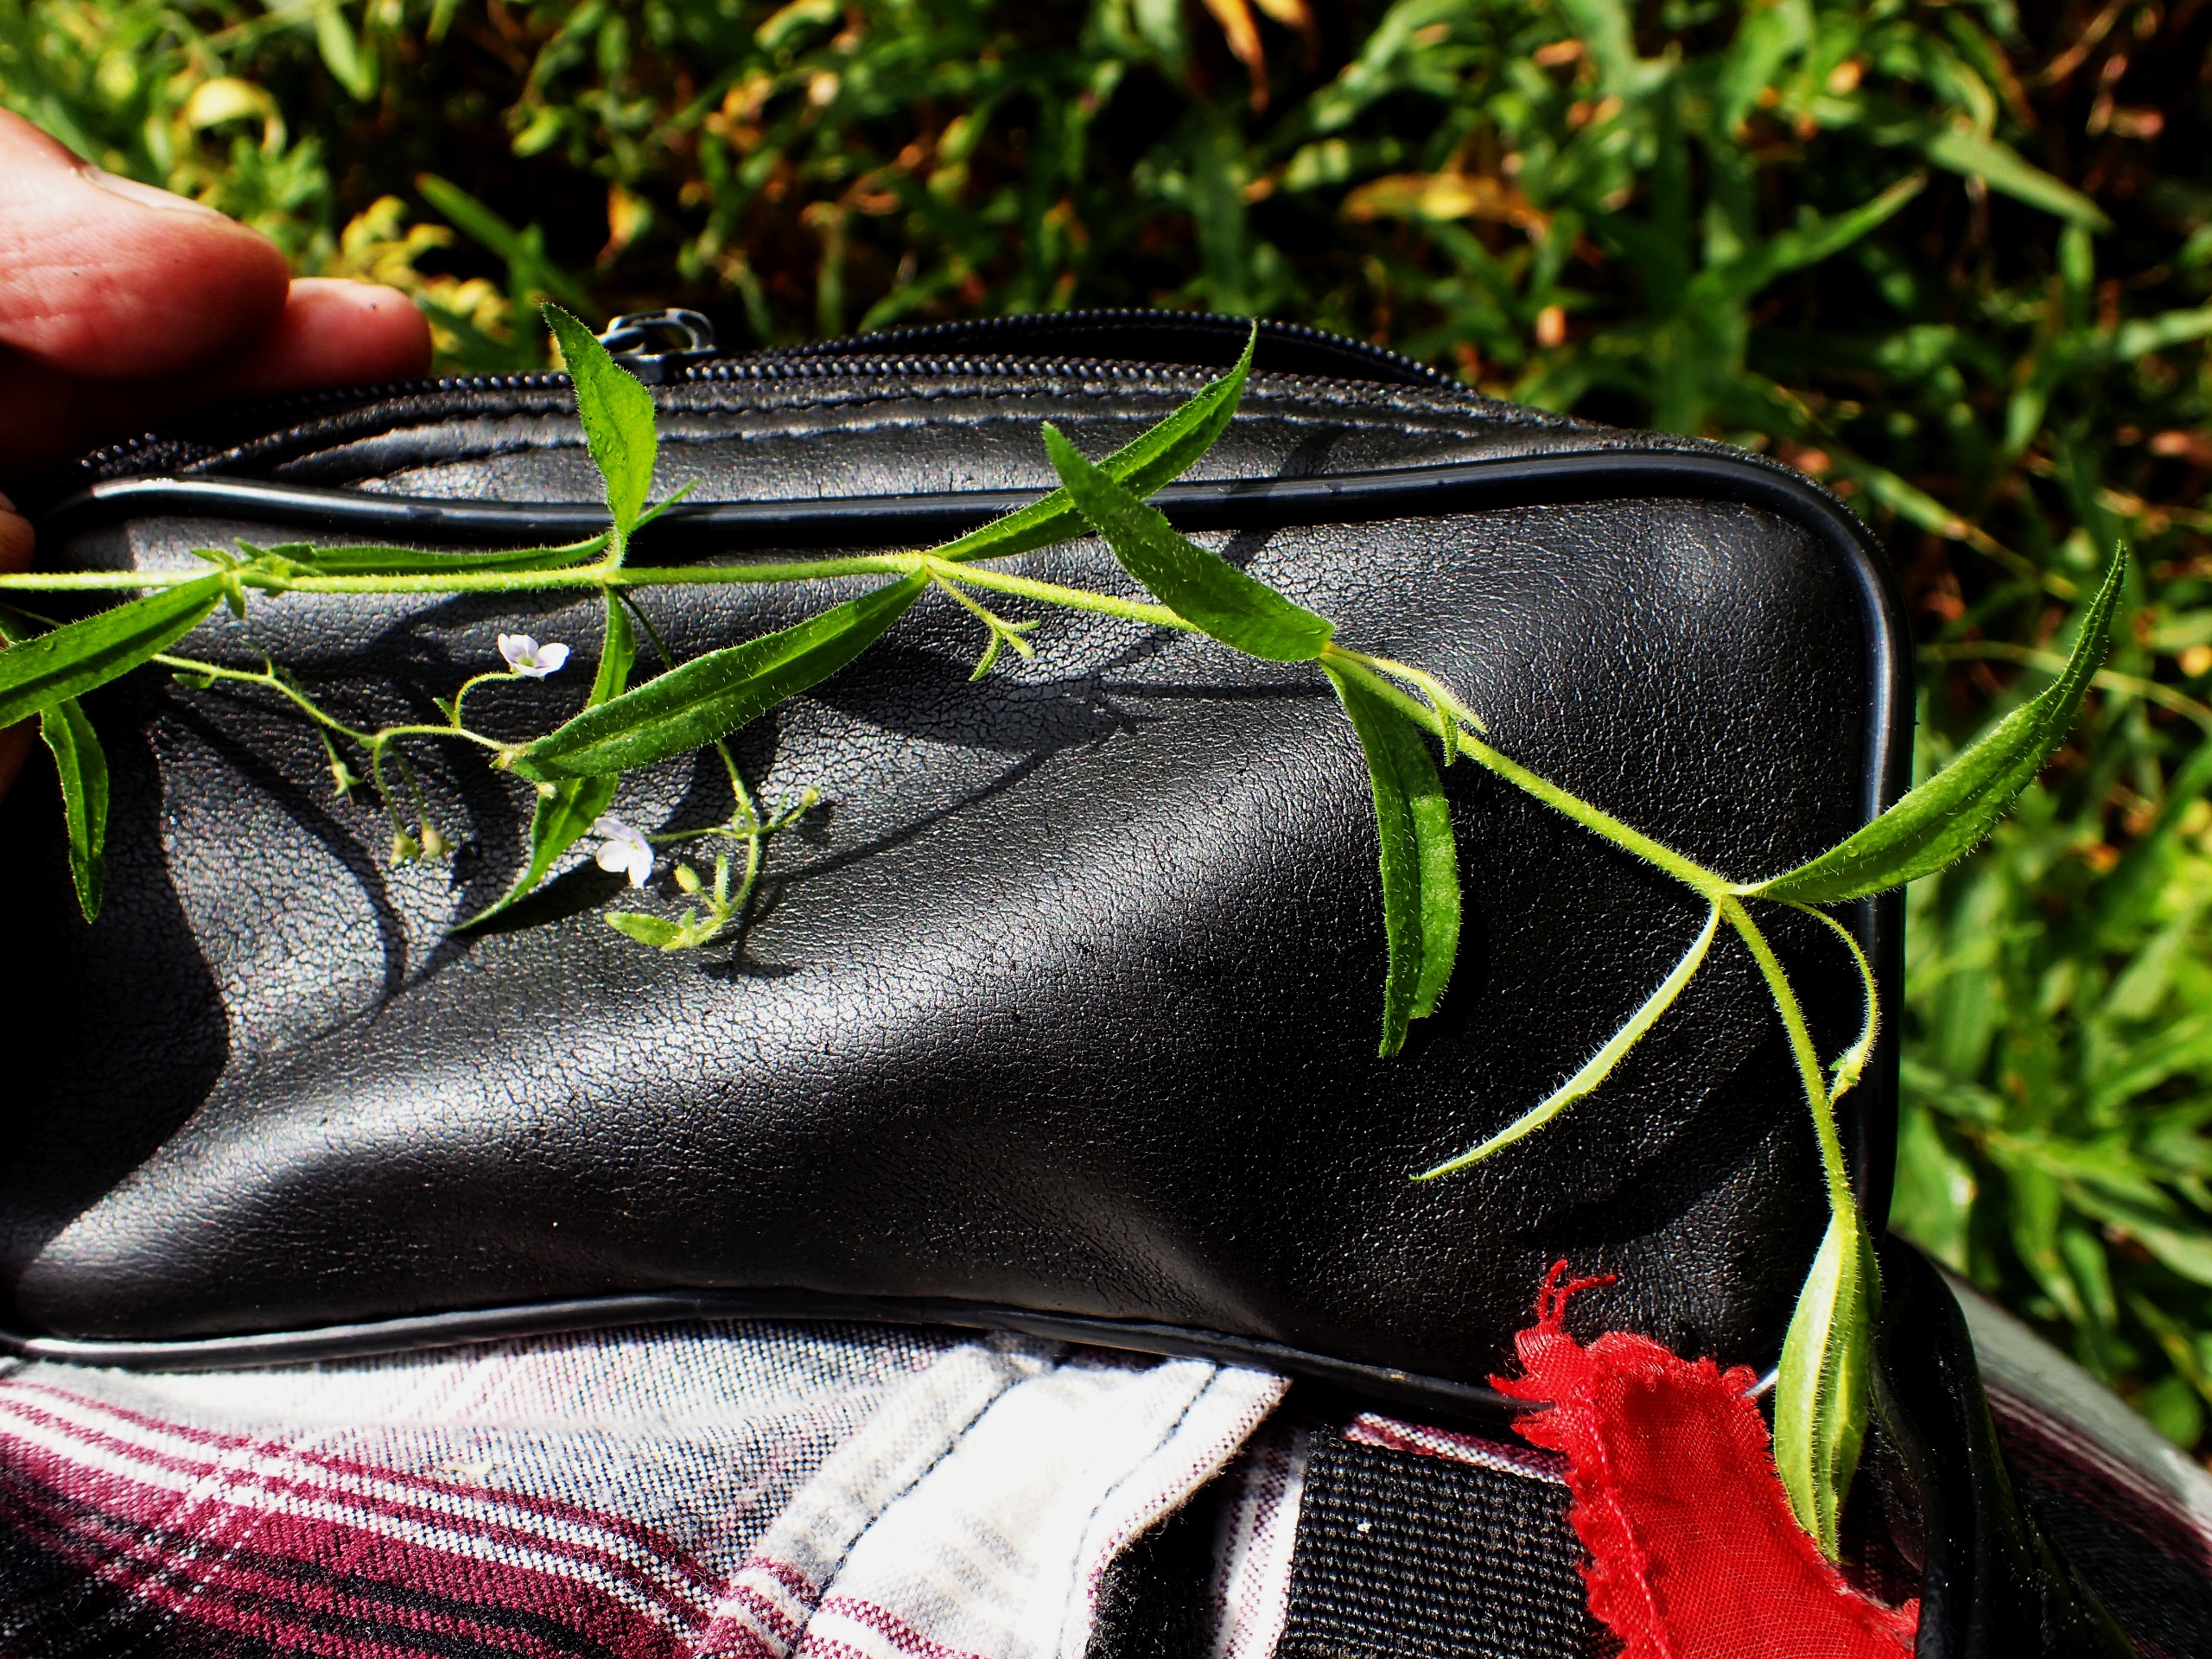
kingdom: Plantae
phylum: Tracheophyta
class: Magnoliopsida
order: Lamiales
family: Plantaginaceae
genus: Veronica
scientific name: Veronica scutellata
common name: Smalbladet ærenpris
